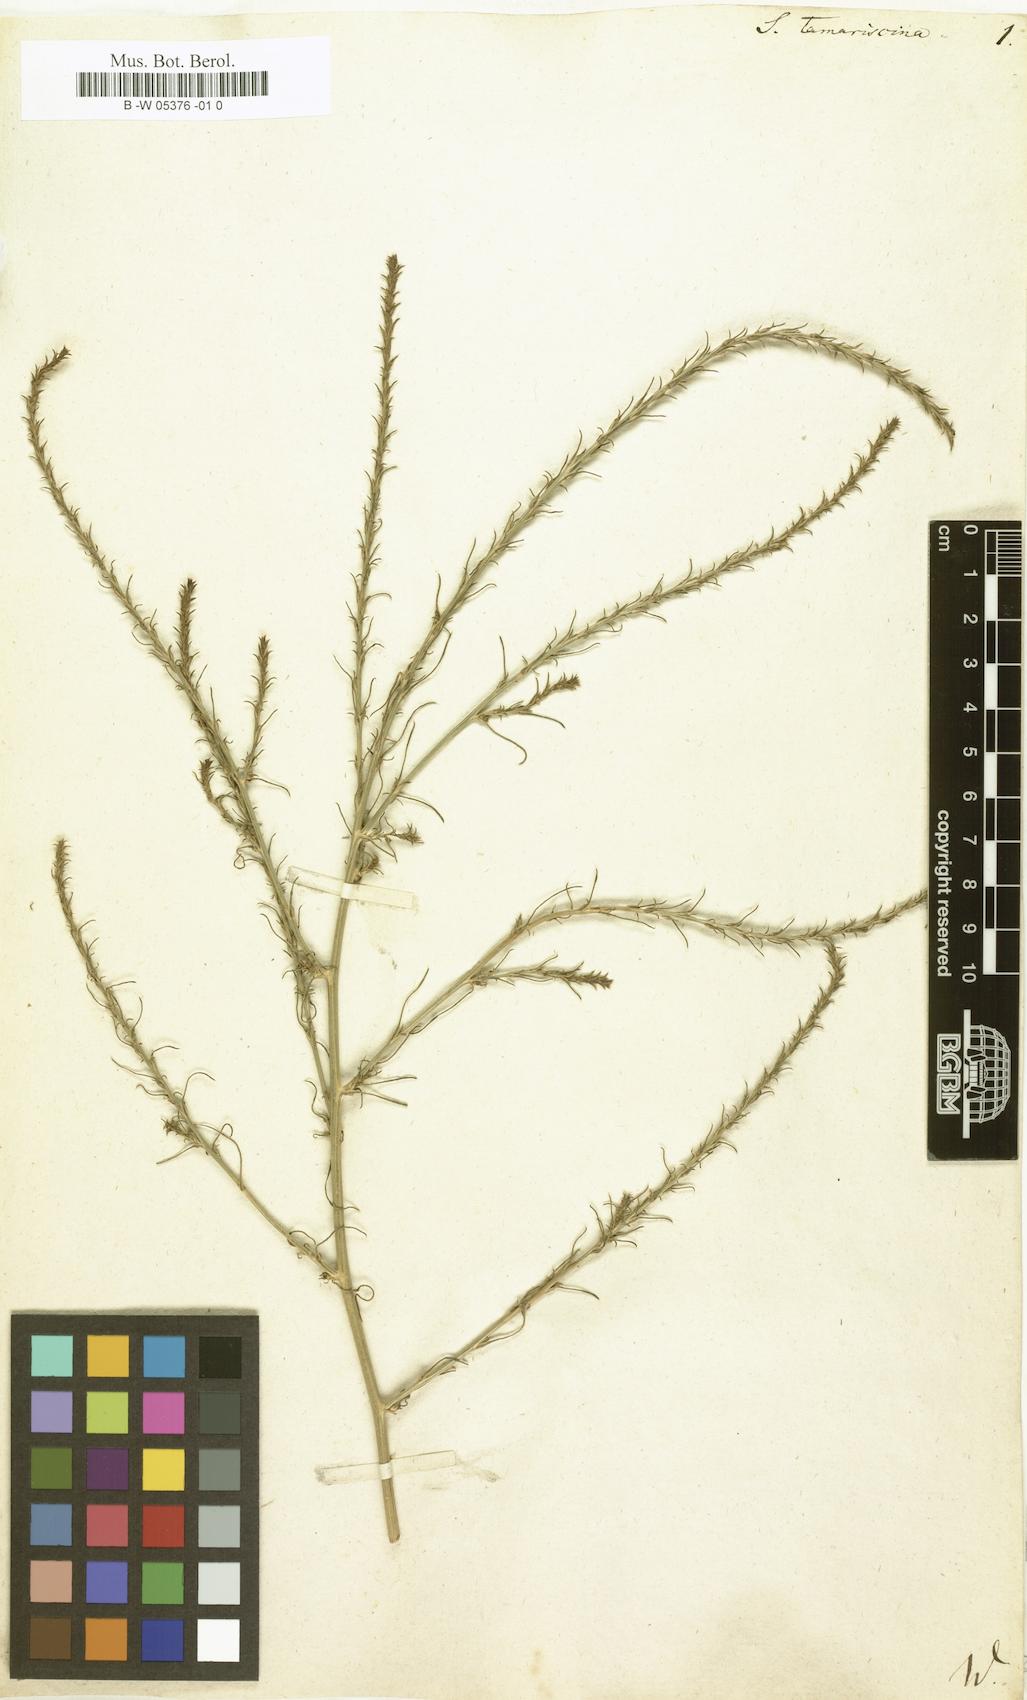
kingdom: Plantae
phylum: Tracheophyta
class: Magnoliopsida
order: Caryophyllales
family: Amaranthaceae
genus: Salsola
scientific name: Salsola tamariscina
